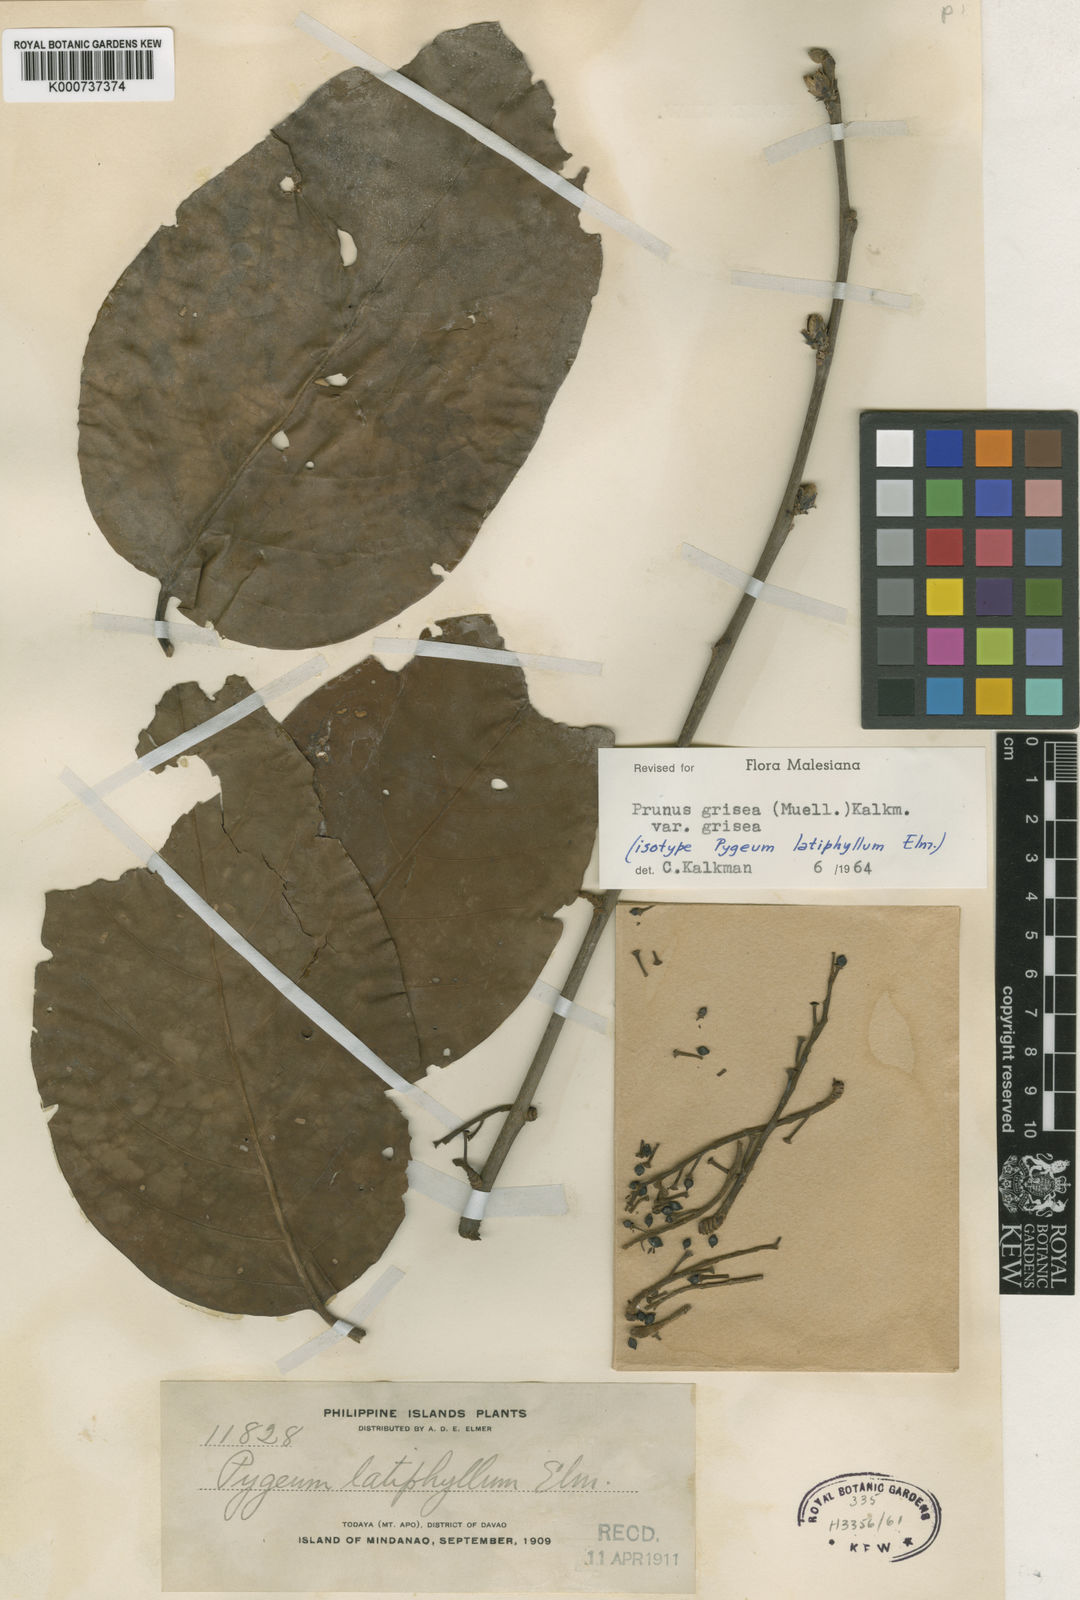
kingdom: Plantae
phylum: Tracheophyta
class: Magnoliopsida
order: Rosales
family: Rosaceae
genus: Prunus
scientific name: Prunus
